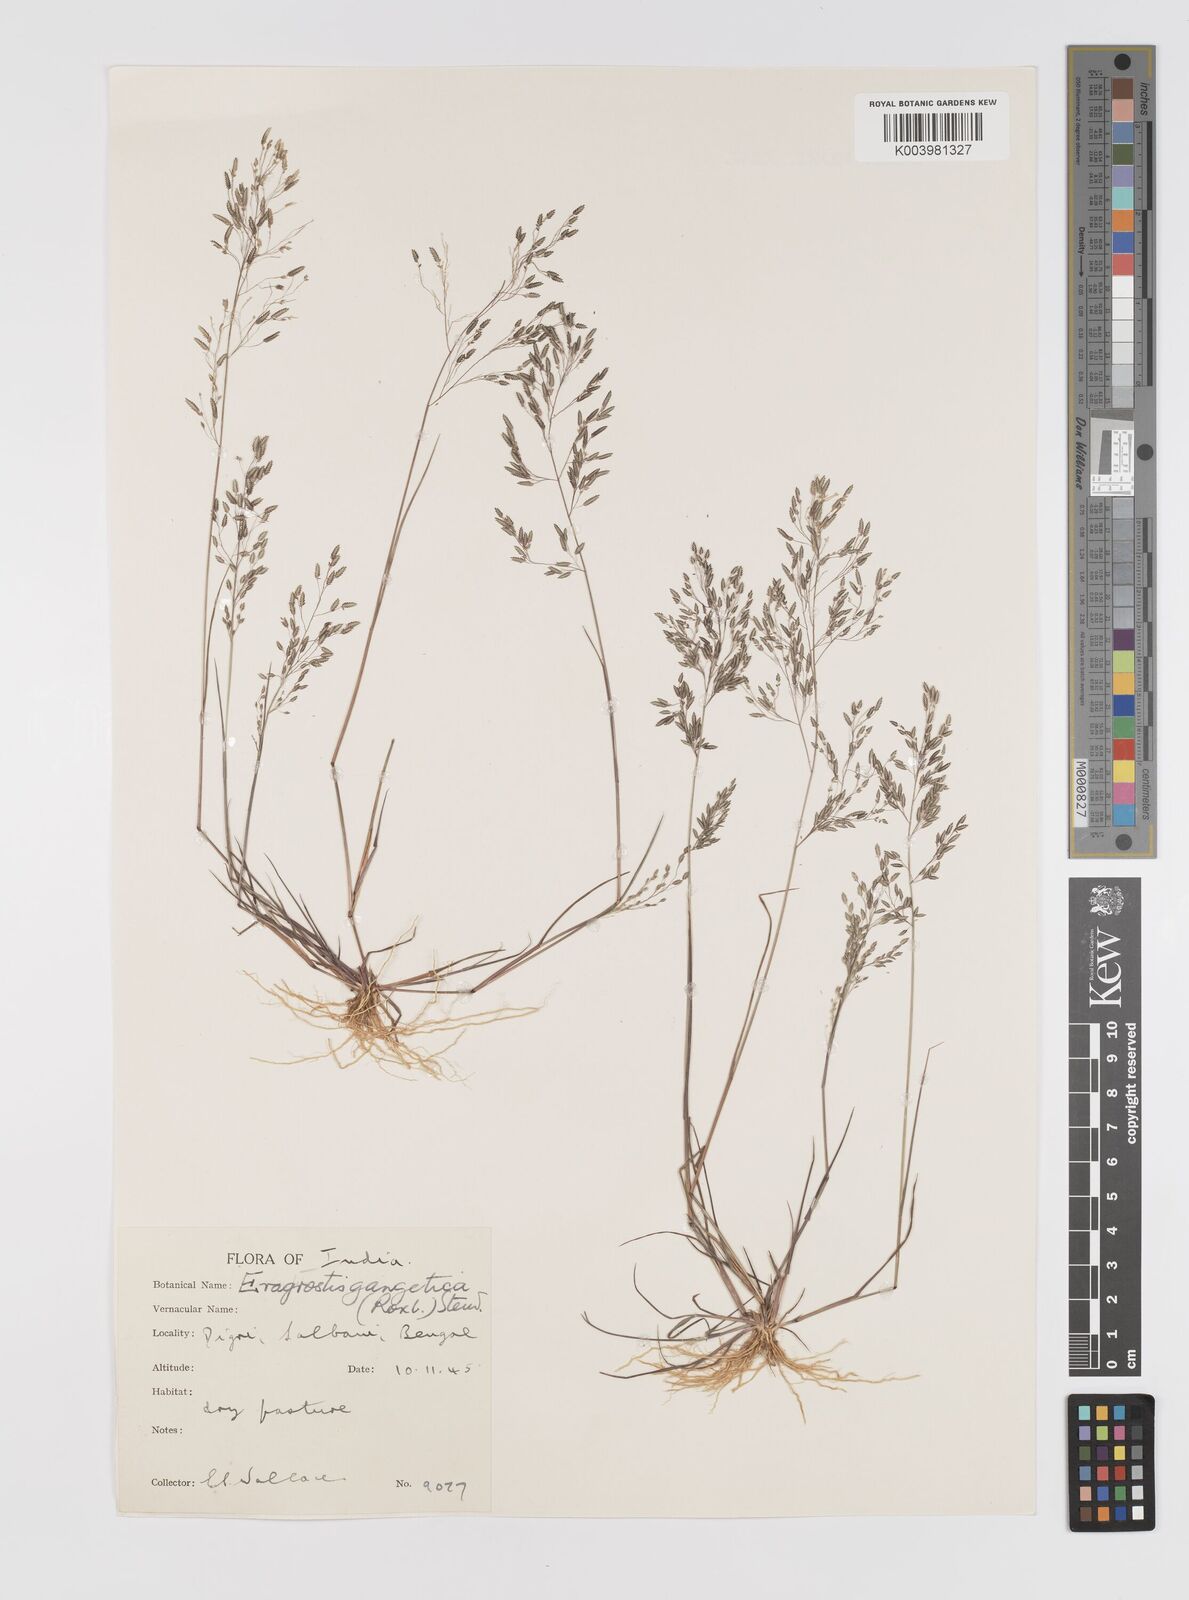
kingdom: Plantae
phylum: Tracheophyta
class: Liliopsida
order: Poales
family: Poaceae
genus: Eragrostis
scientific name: Eragrostis gangetica
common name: Slimflower lovegrass
